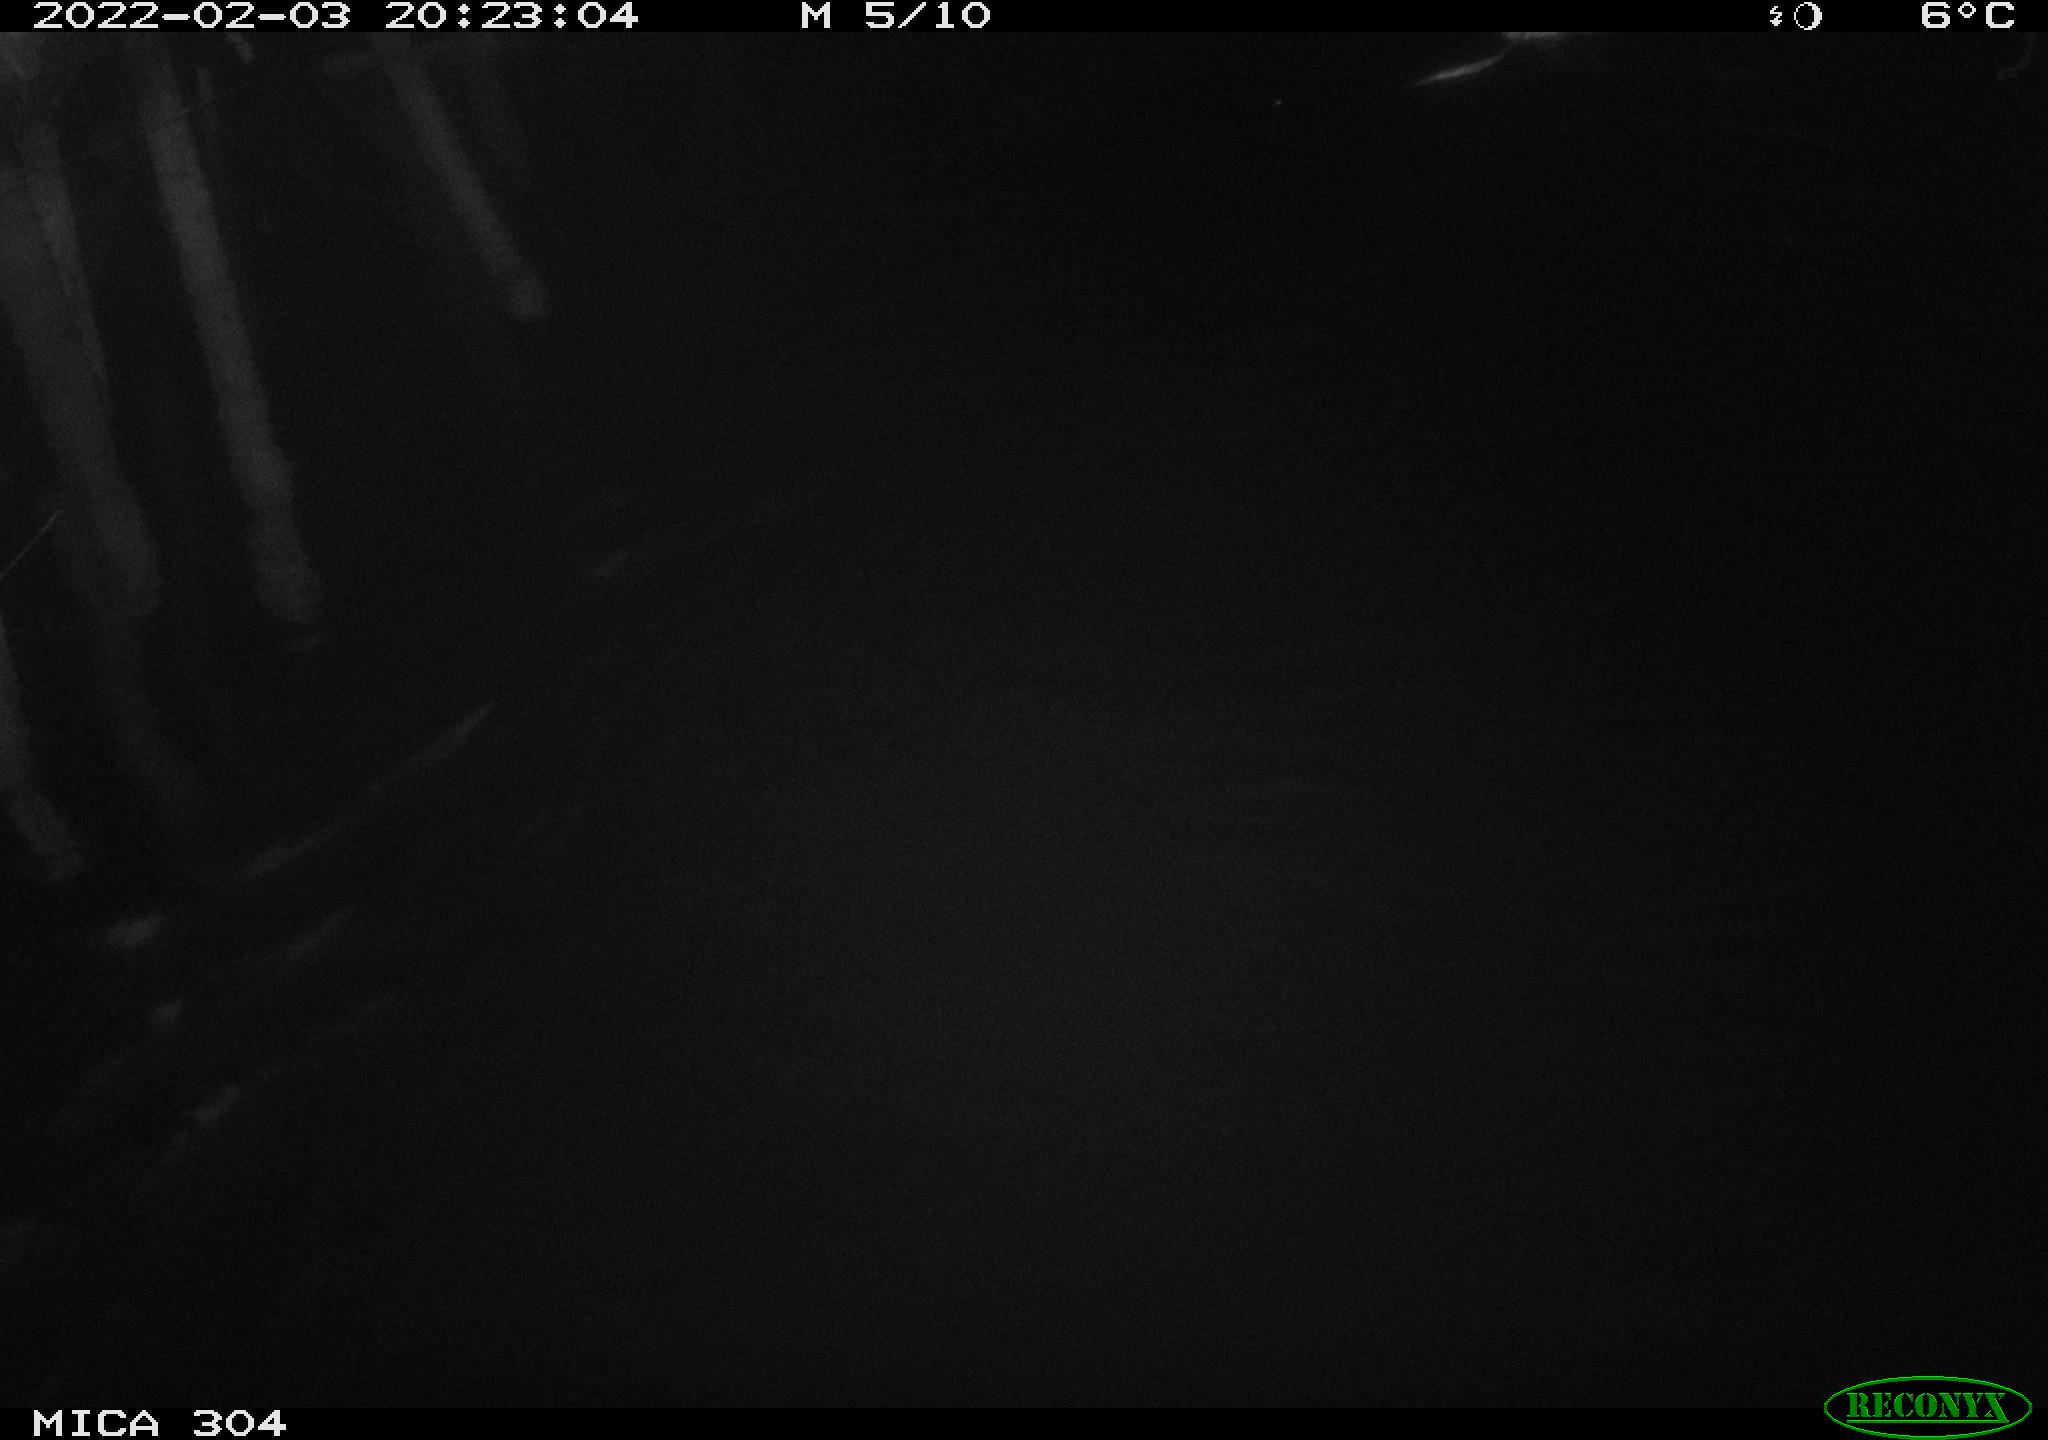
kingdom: Animalia
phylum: Chordata
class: Mammalia
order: Rodentia
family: Cricetidae
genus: Ondatra
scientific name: Ondatra zibethicus
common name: Muskrat
